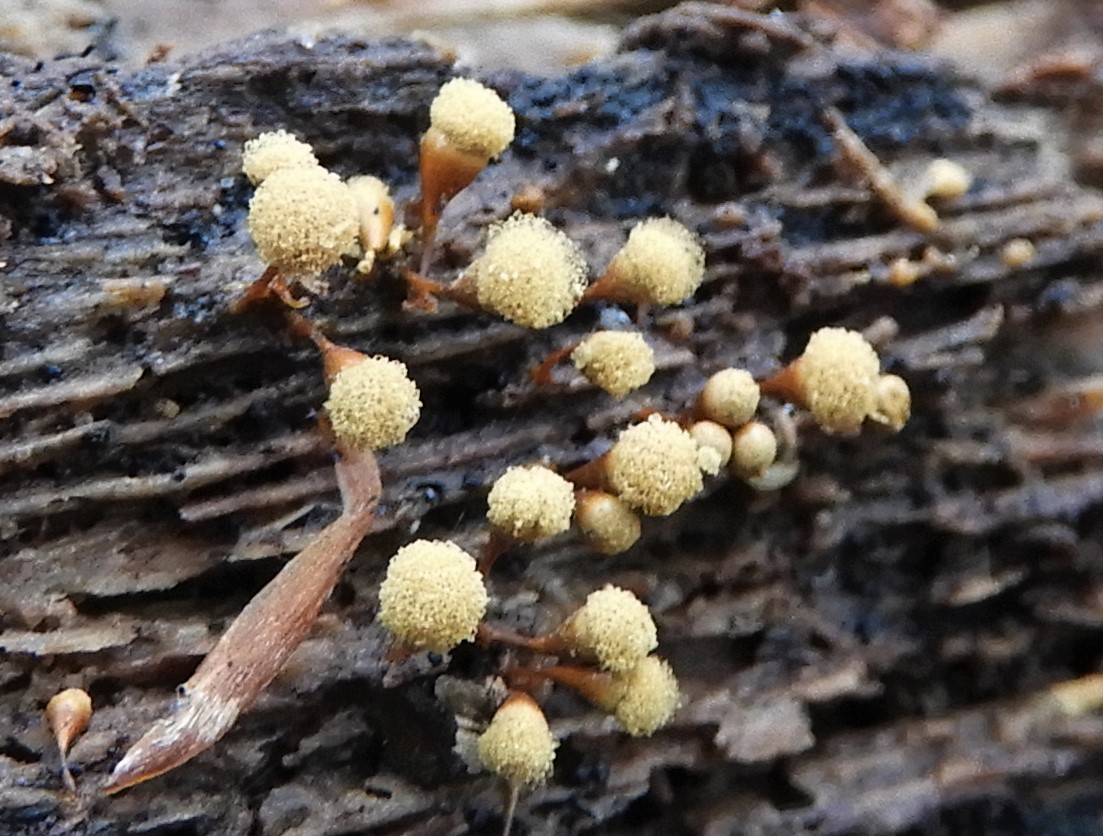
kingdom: Protozoa
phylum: Mycetozoa
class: Myxomycetes
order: Trichiales
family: Arcyriaceae
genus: Hemitrichia
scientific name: Hemitrichia clavata
